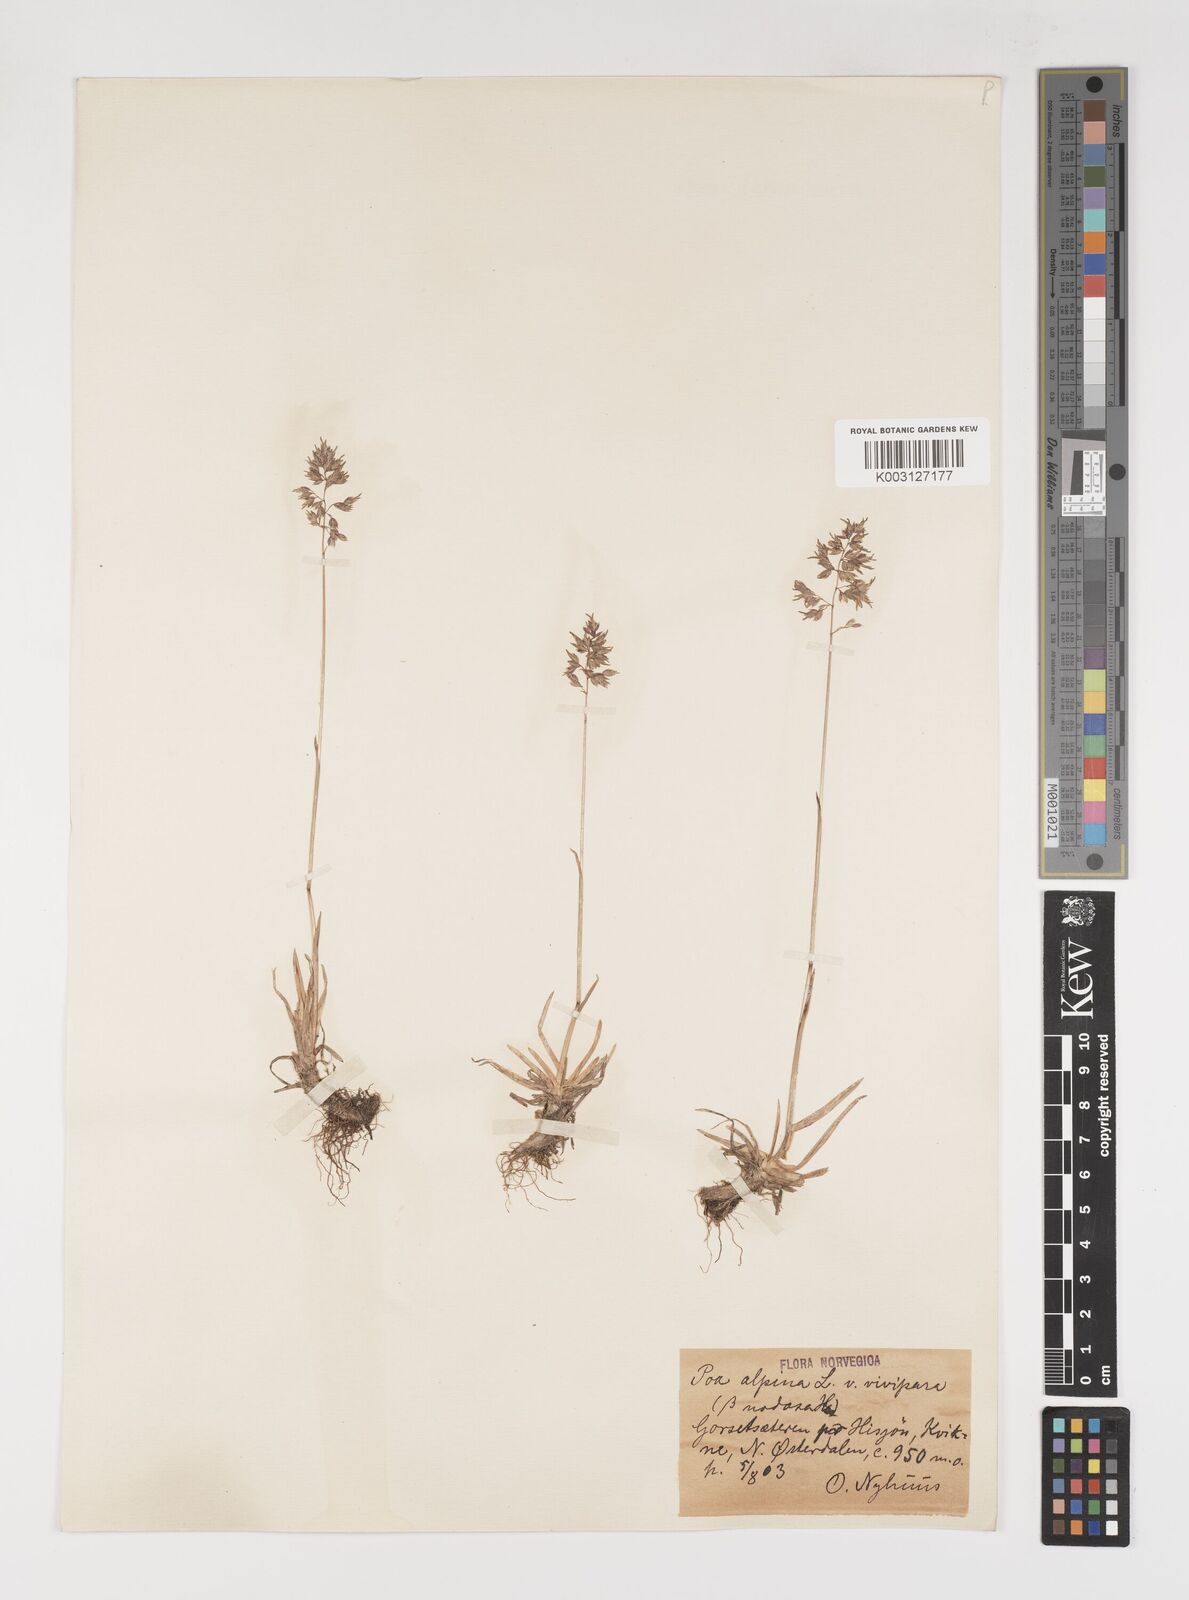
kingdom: Plantae
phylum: Tracheophyta
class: Liliopsida
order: Poales
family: Poaceae
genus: Poa
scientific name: Poa alpina
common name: Alpine bluegrass
